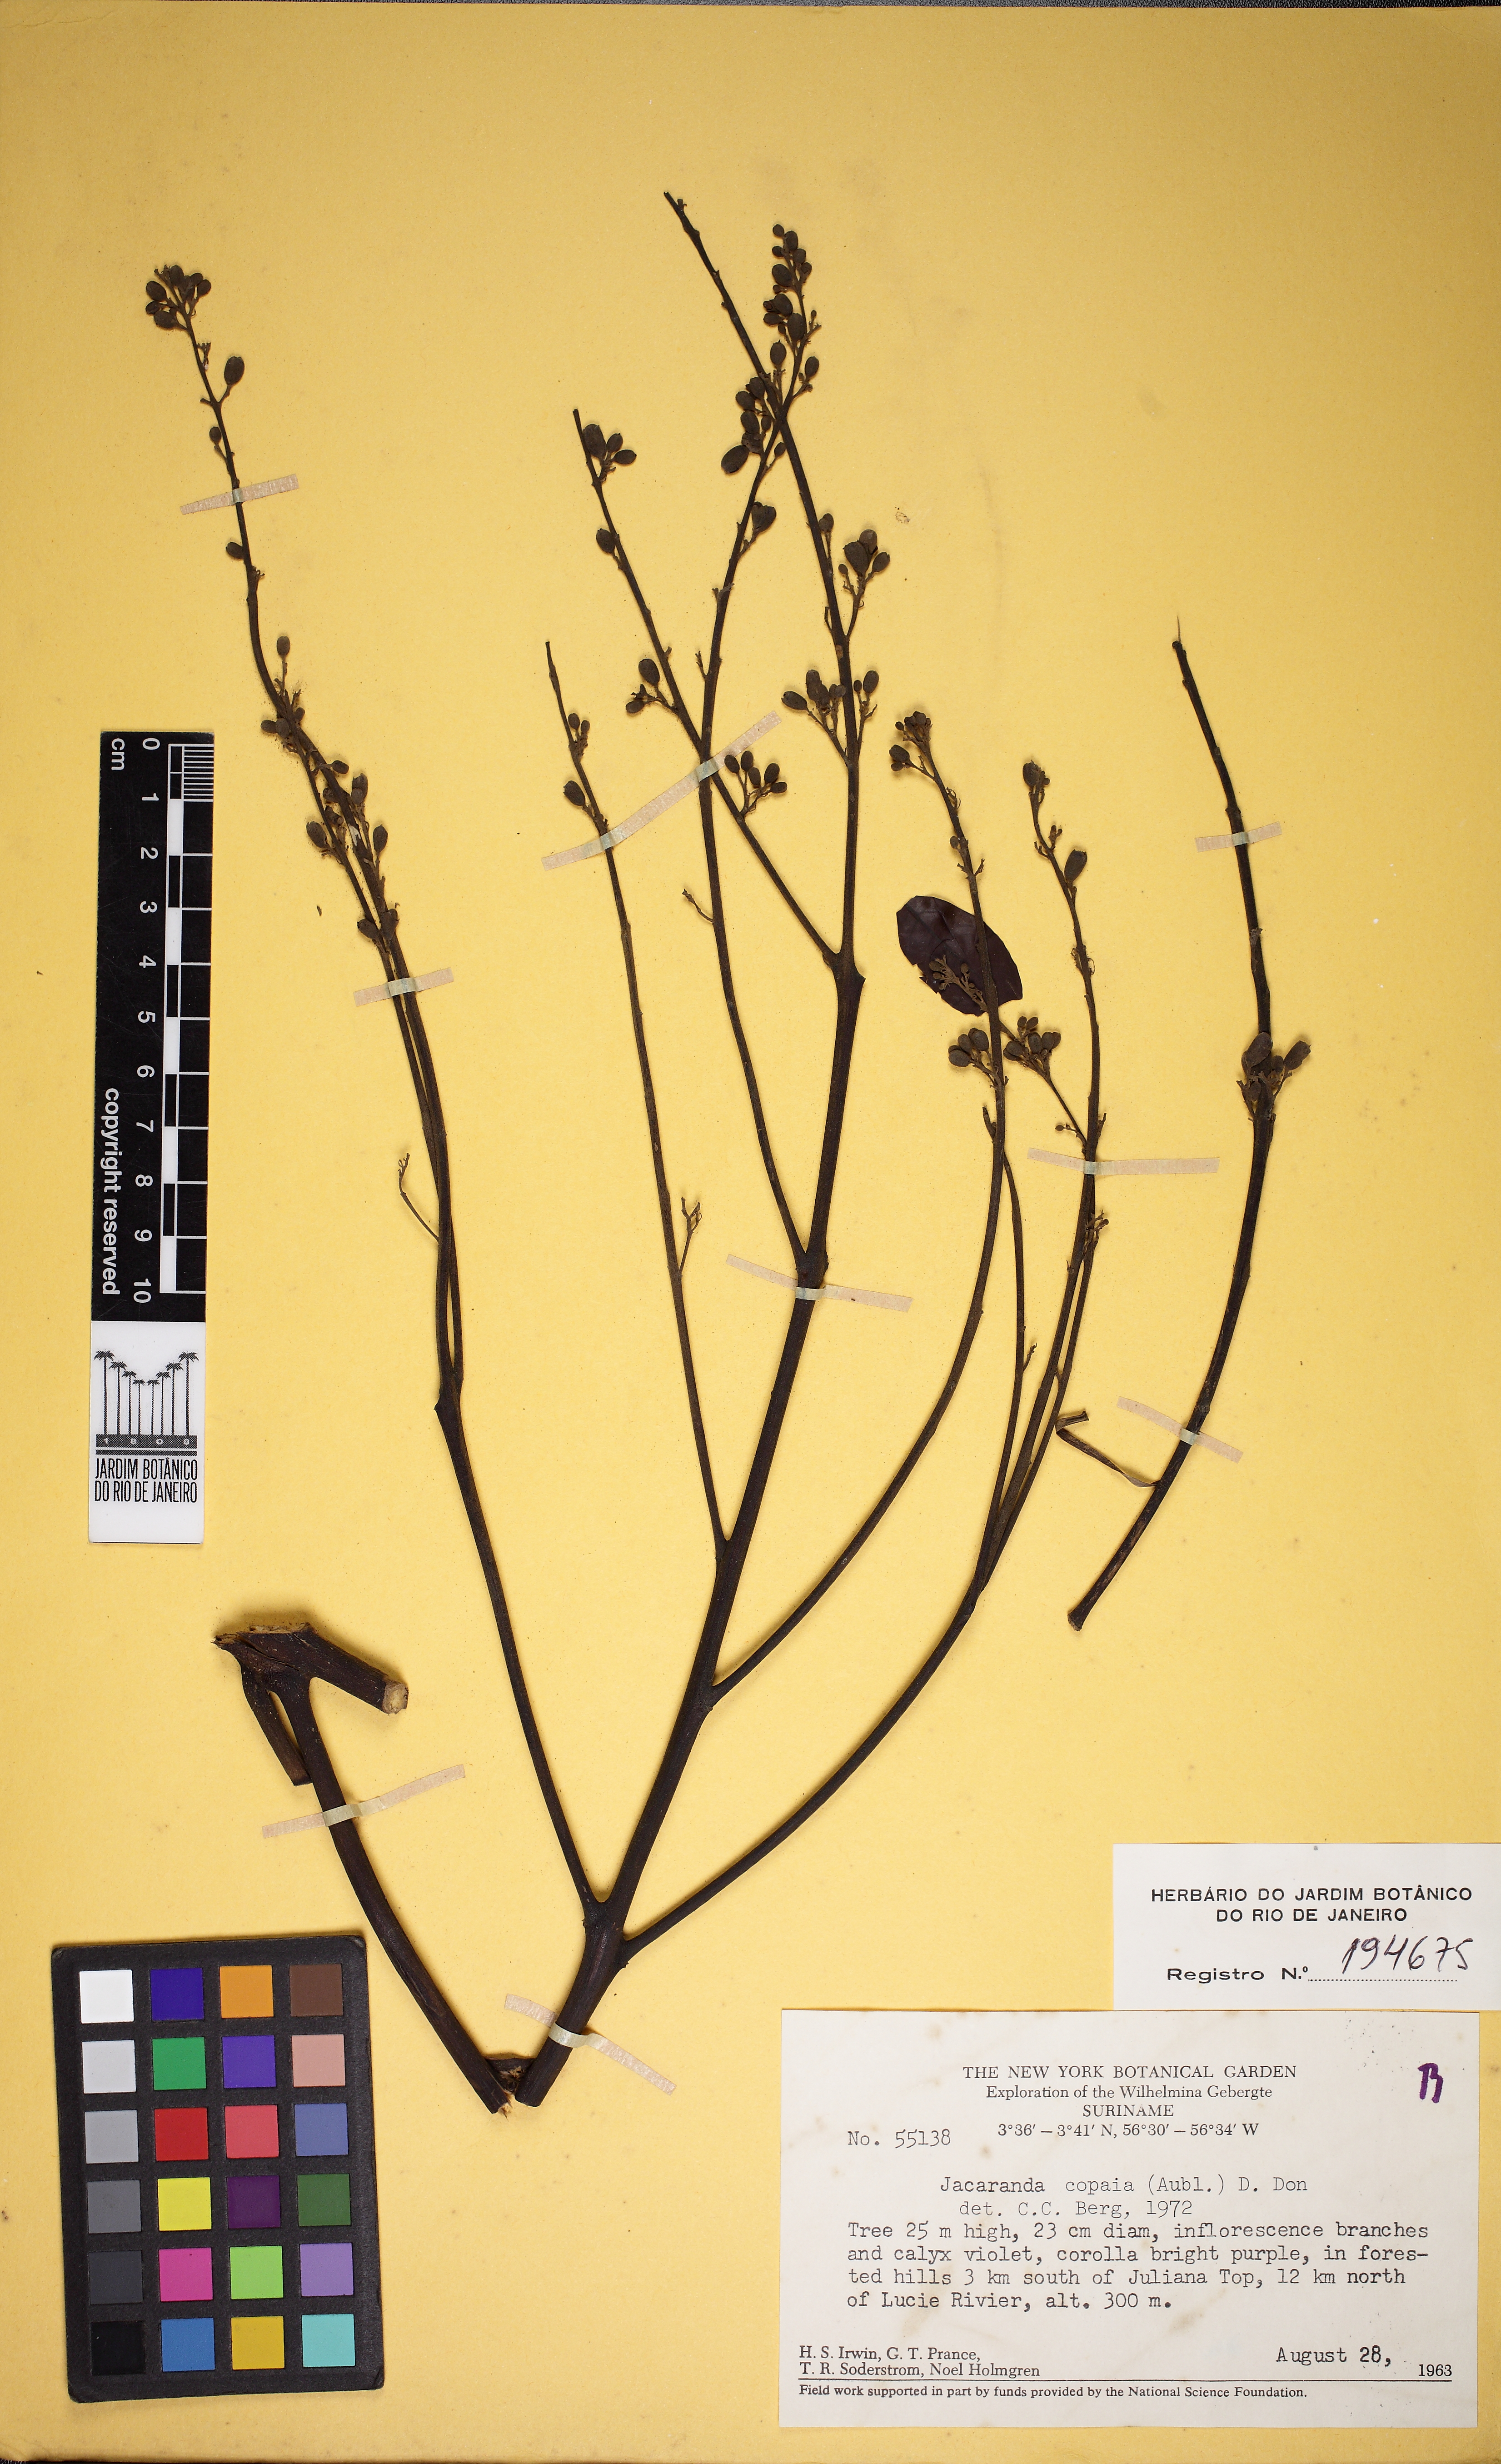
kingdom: Plantae
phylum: Tracheophyta
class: Magnoliopsida
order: Lamiales
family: Bignoniaceae
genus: Jacaranda
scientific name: Jacaranda copaia
